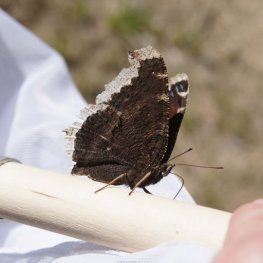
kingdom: Animalia
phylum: Arthropoda
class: Insecta
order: Lepidoptera
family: Nymphalidae
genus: Nymphalis
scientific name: Nymphalis antiopa
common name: Mourning Cloak
